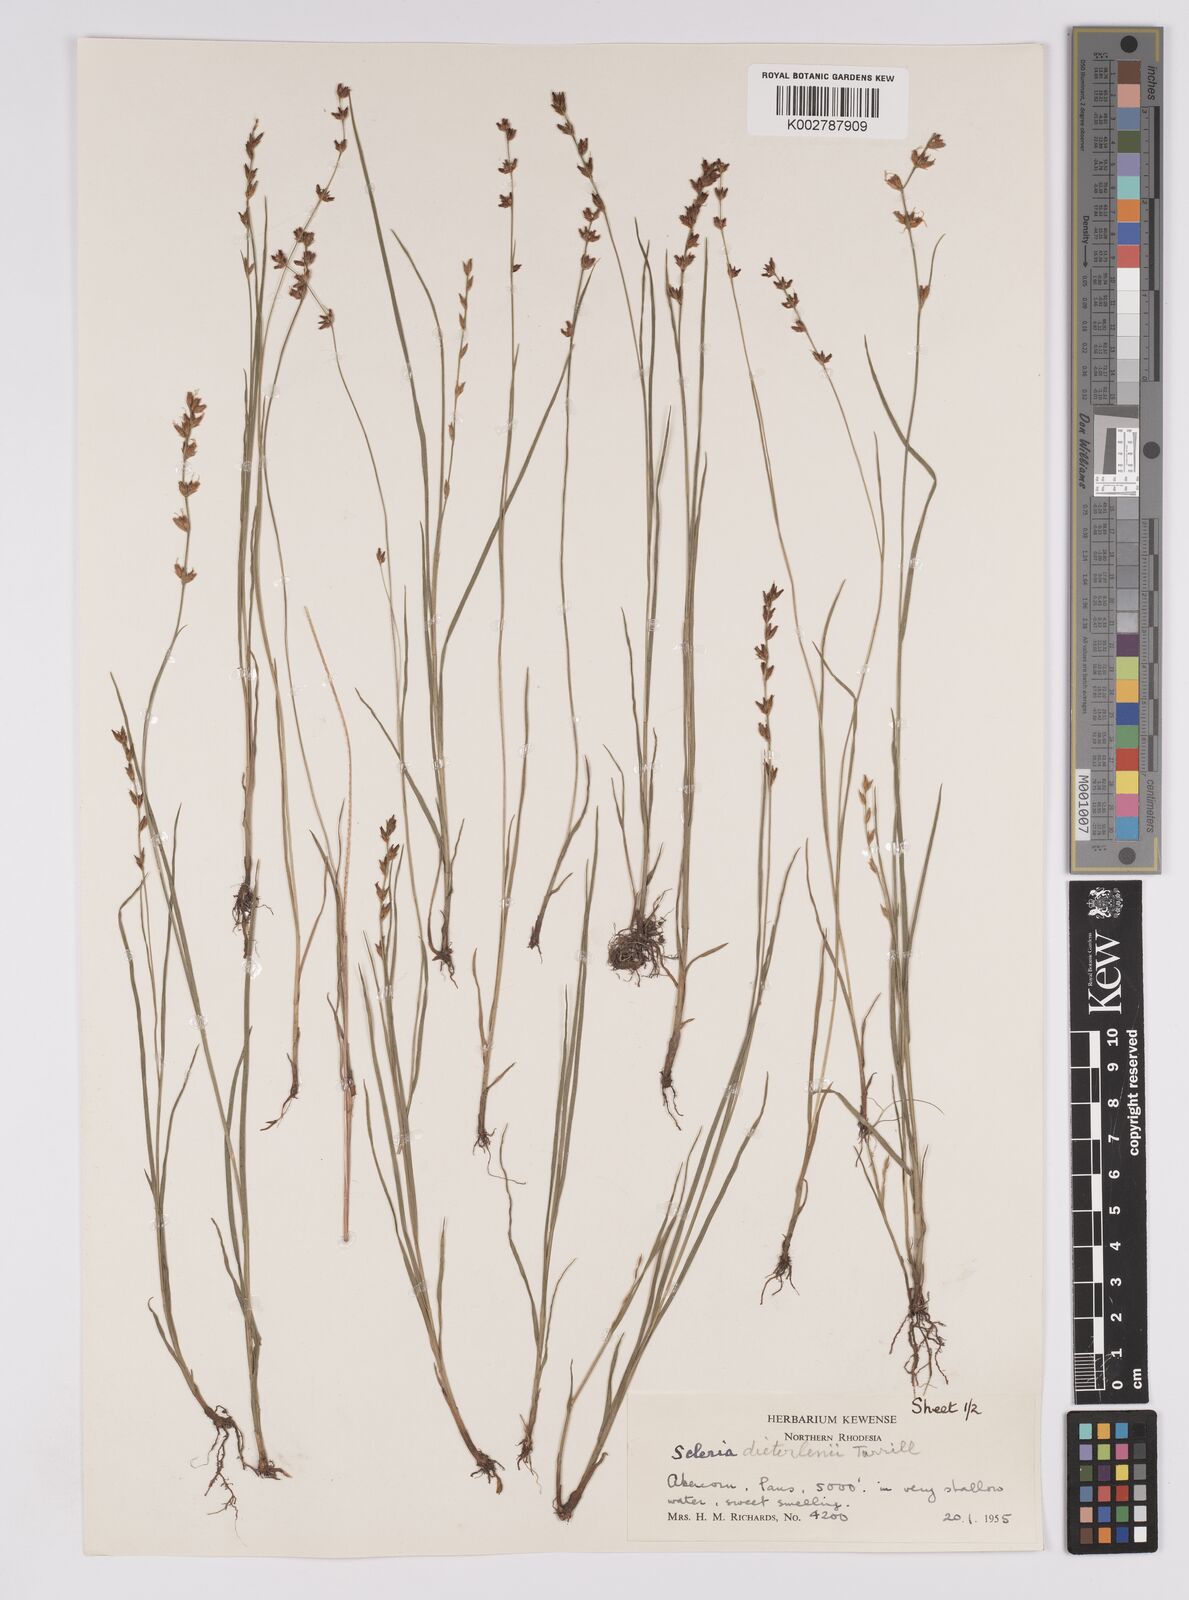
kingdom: Plantae
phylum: Tracheophyta
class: Liliopsida
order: Poales
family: Cyperaceae
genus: Scleria
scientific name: Scleria flexuosa
